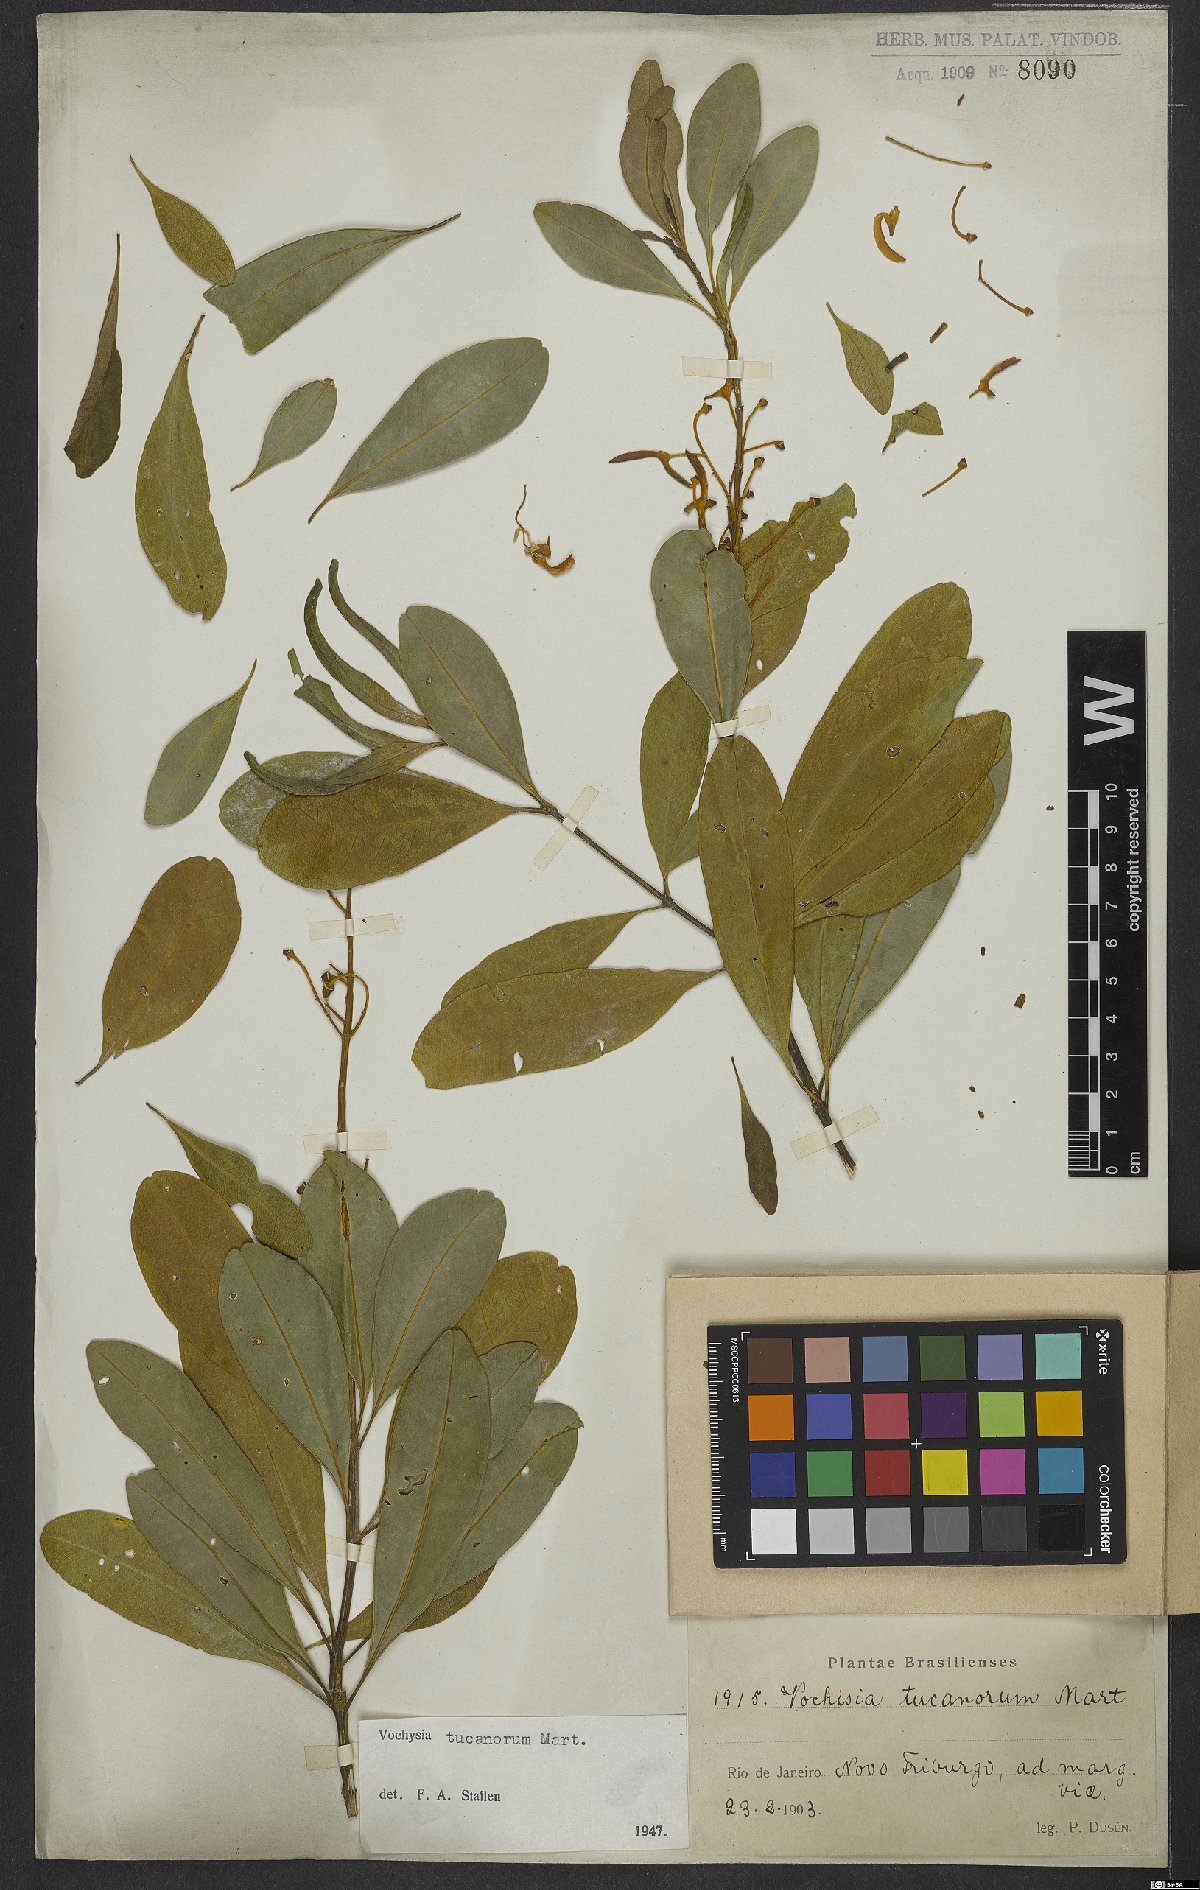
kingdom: Plantae
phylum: Tracheophyta
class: Magnoliopsida
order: Myrtales
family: Vochysiaceae
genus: Vochysia
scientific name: Vochysia tucanorum
